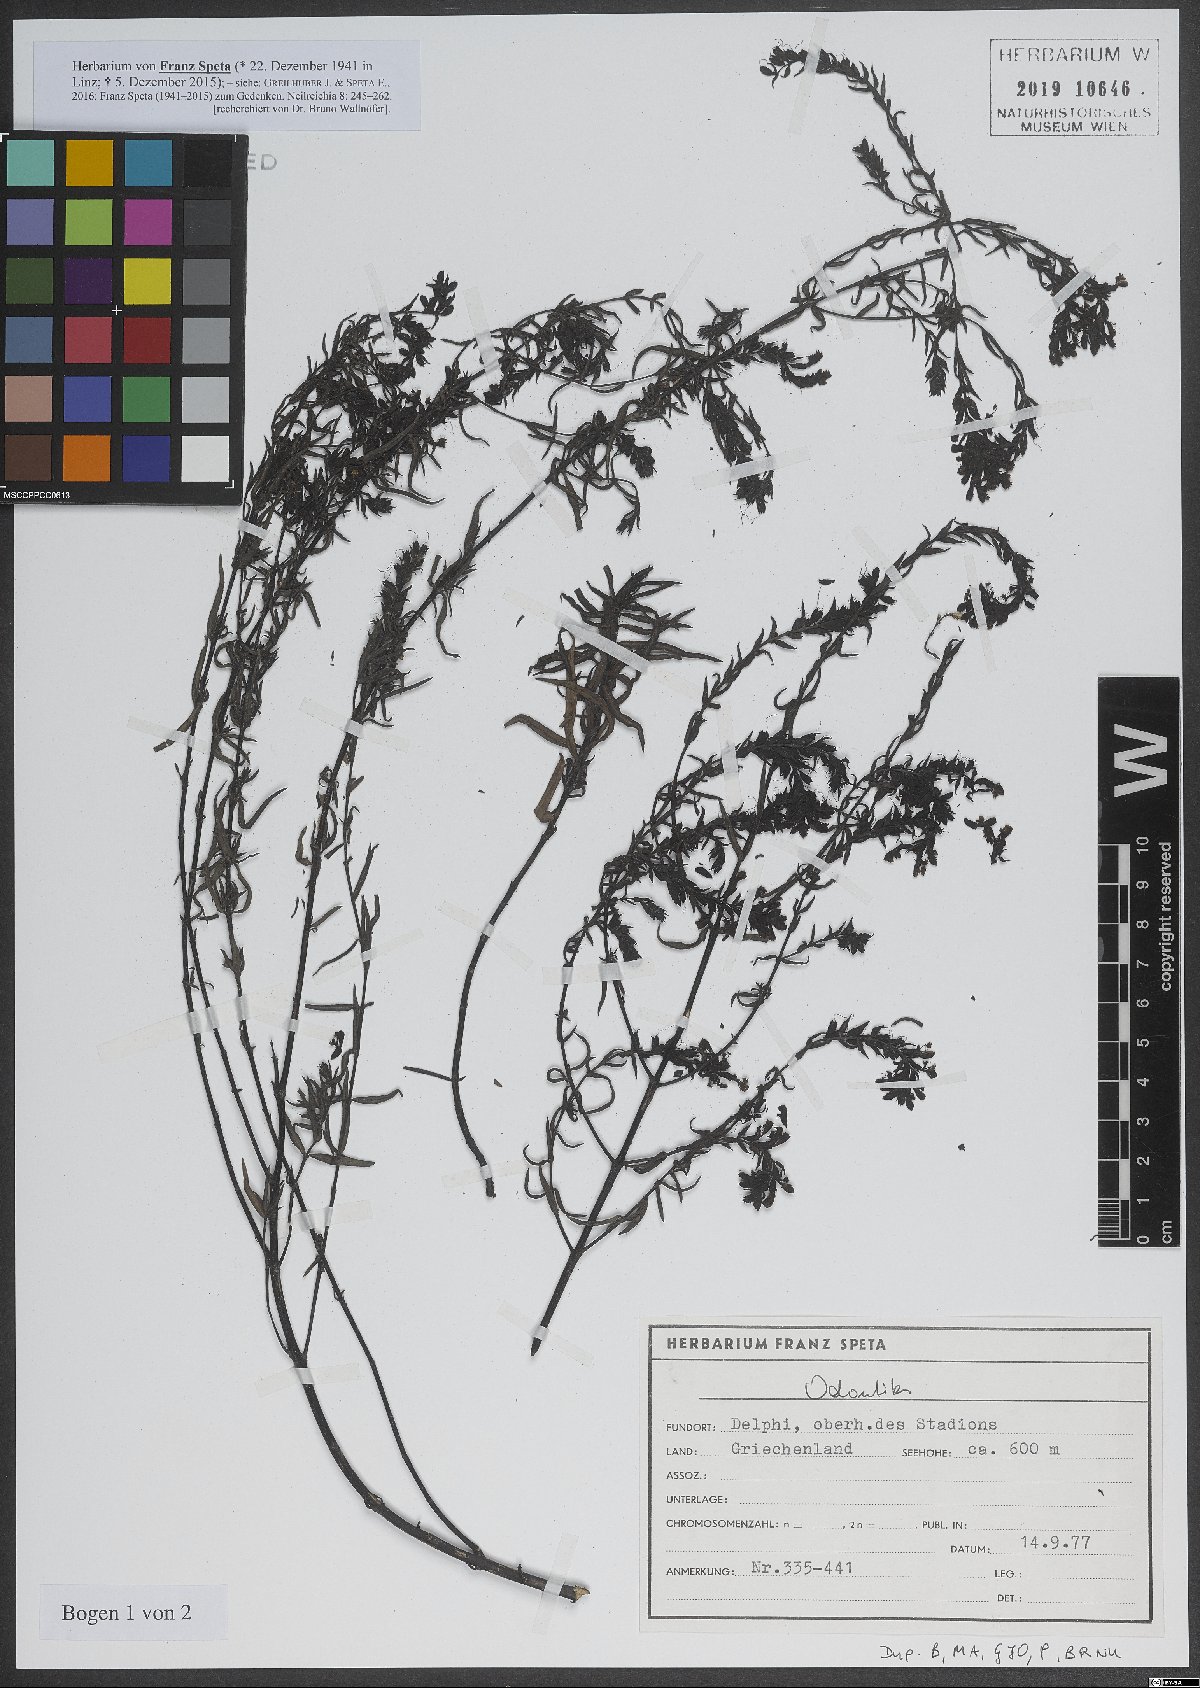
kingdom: Plantae
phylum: Tracheophyta
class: Magnoliopsida
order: Lamiales
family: Orobanchaceae
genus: Odontites
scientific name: Odontites
